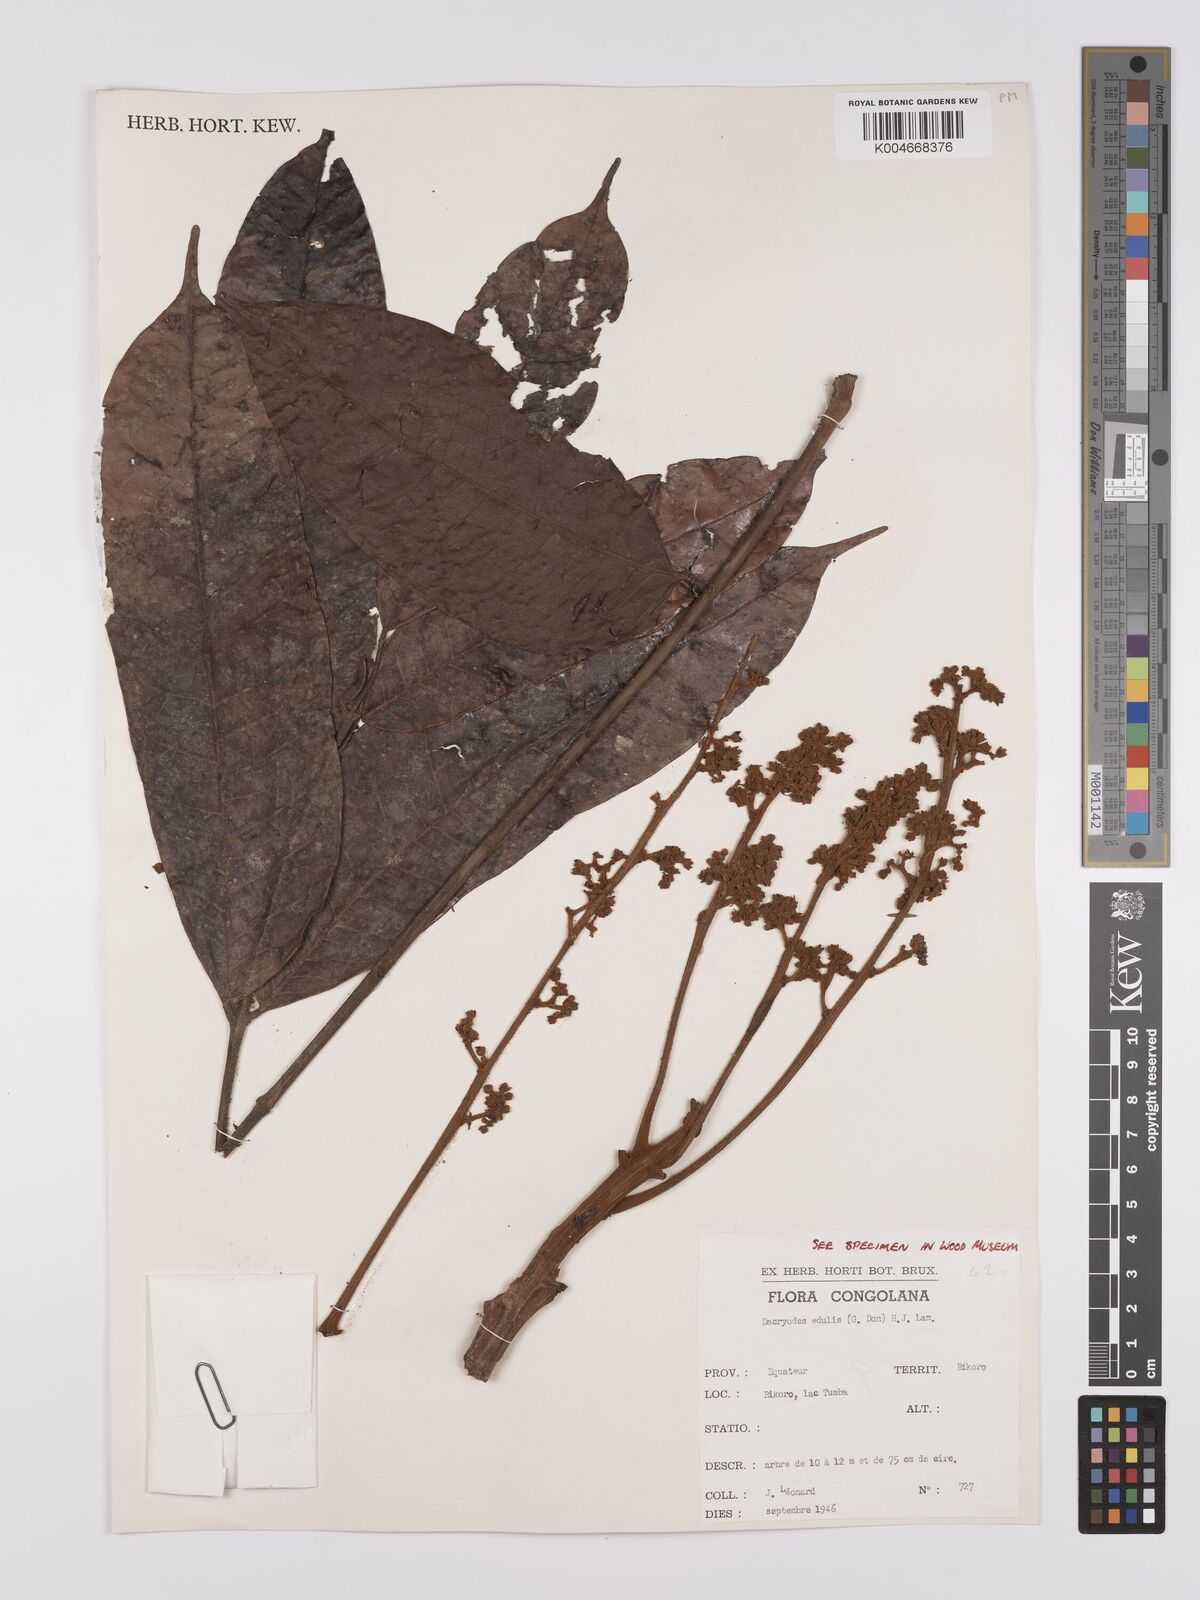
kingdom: Plantae
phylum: Tracheophyta
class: Magnoliopsida
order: Sapindales
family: Burseraceae
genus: Pachylobus
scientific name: Pachylobus edulis
